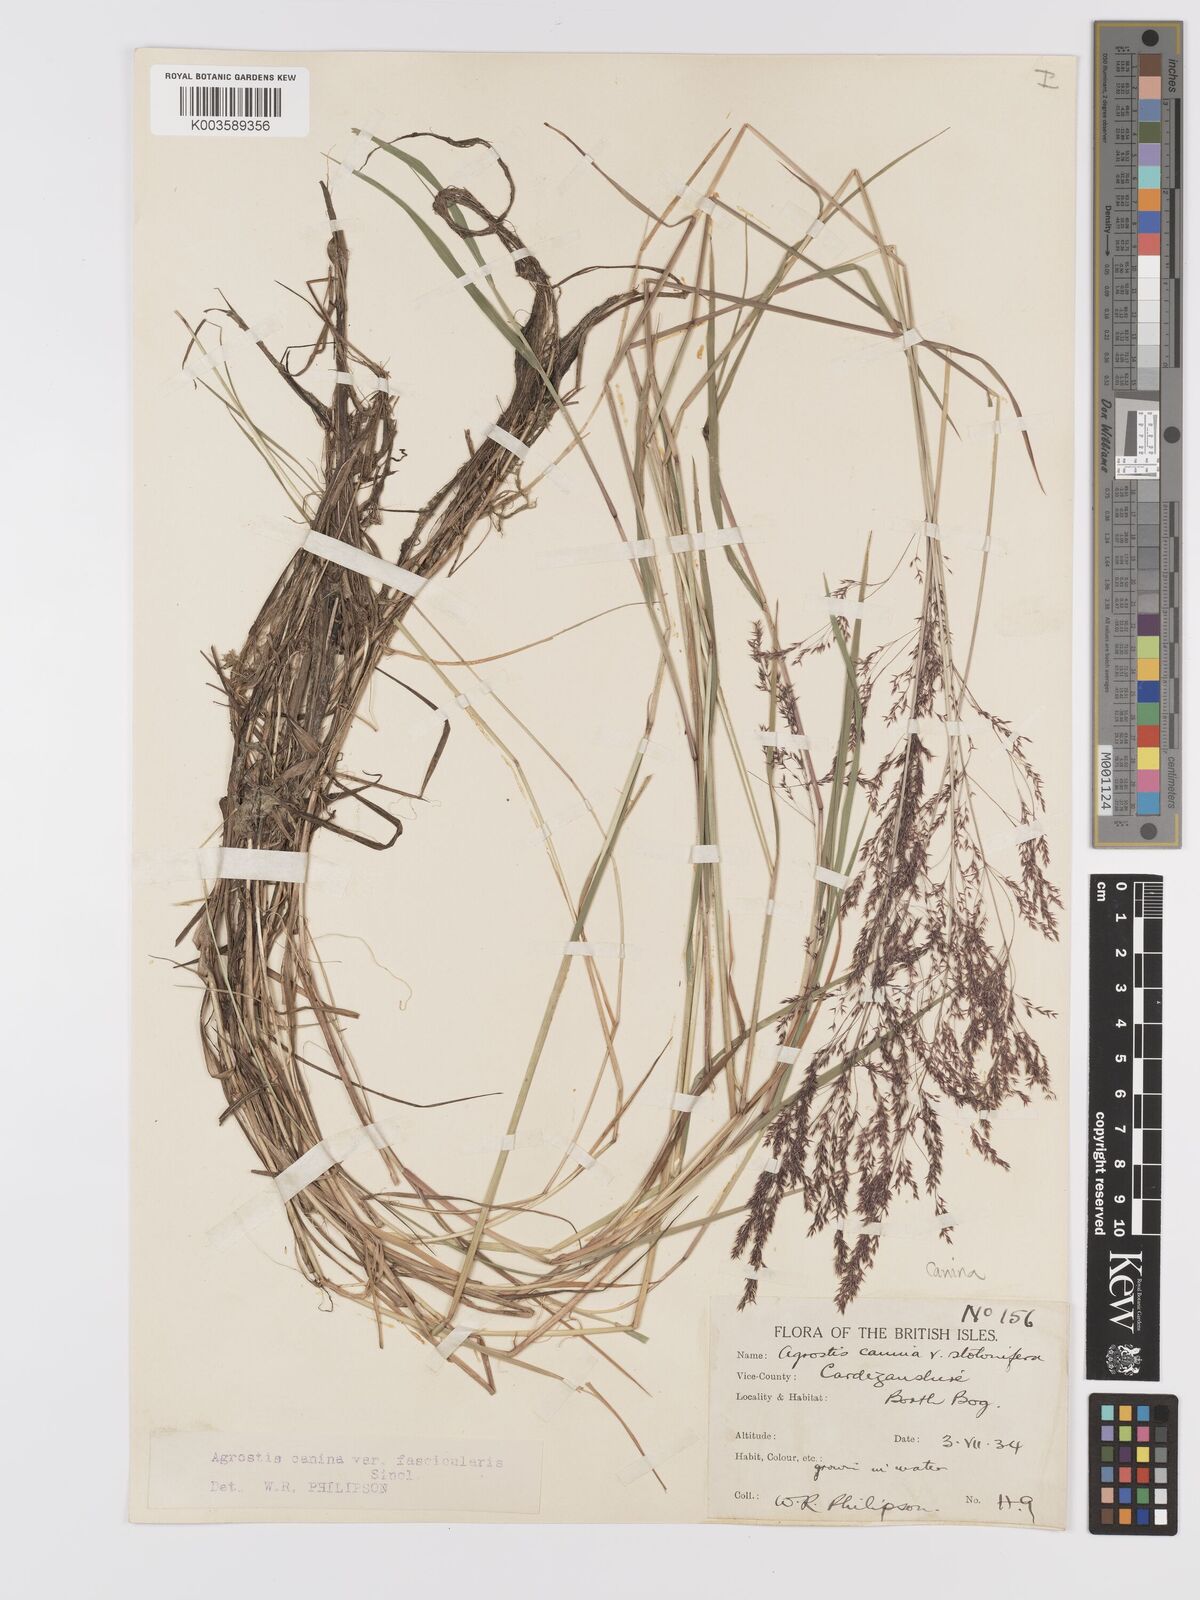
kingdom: Plantae
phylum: Tracheophyta
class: Liliopsida
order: Poales
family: Poaceae
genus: Agrostis
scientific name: Agrostis canina
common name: Velvet bent
